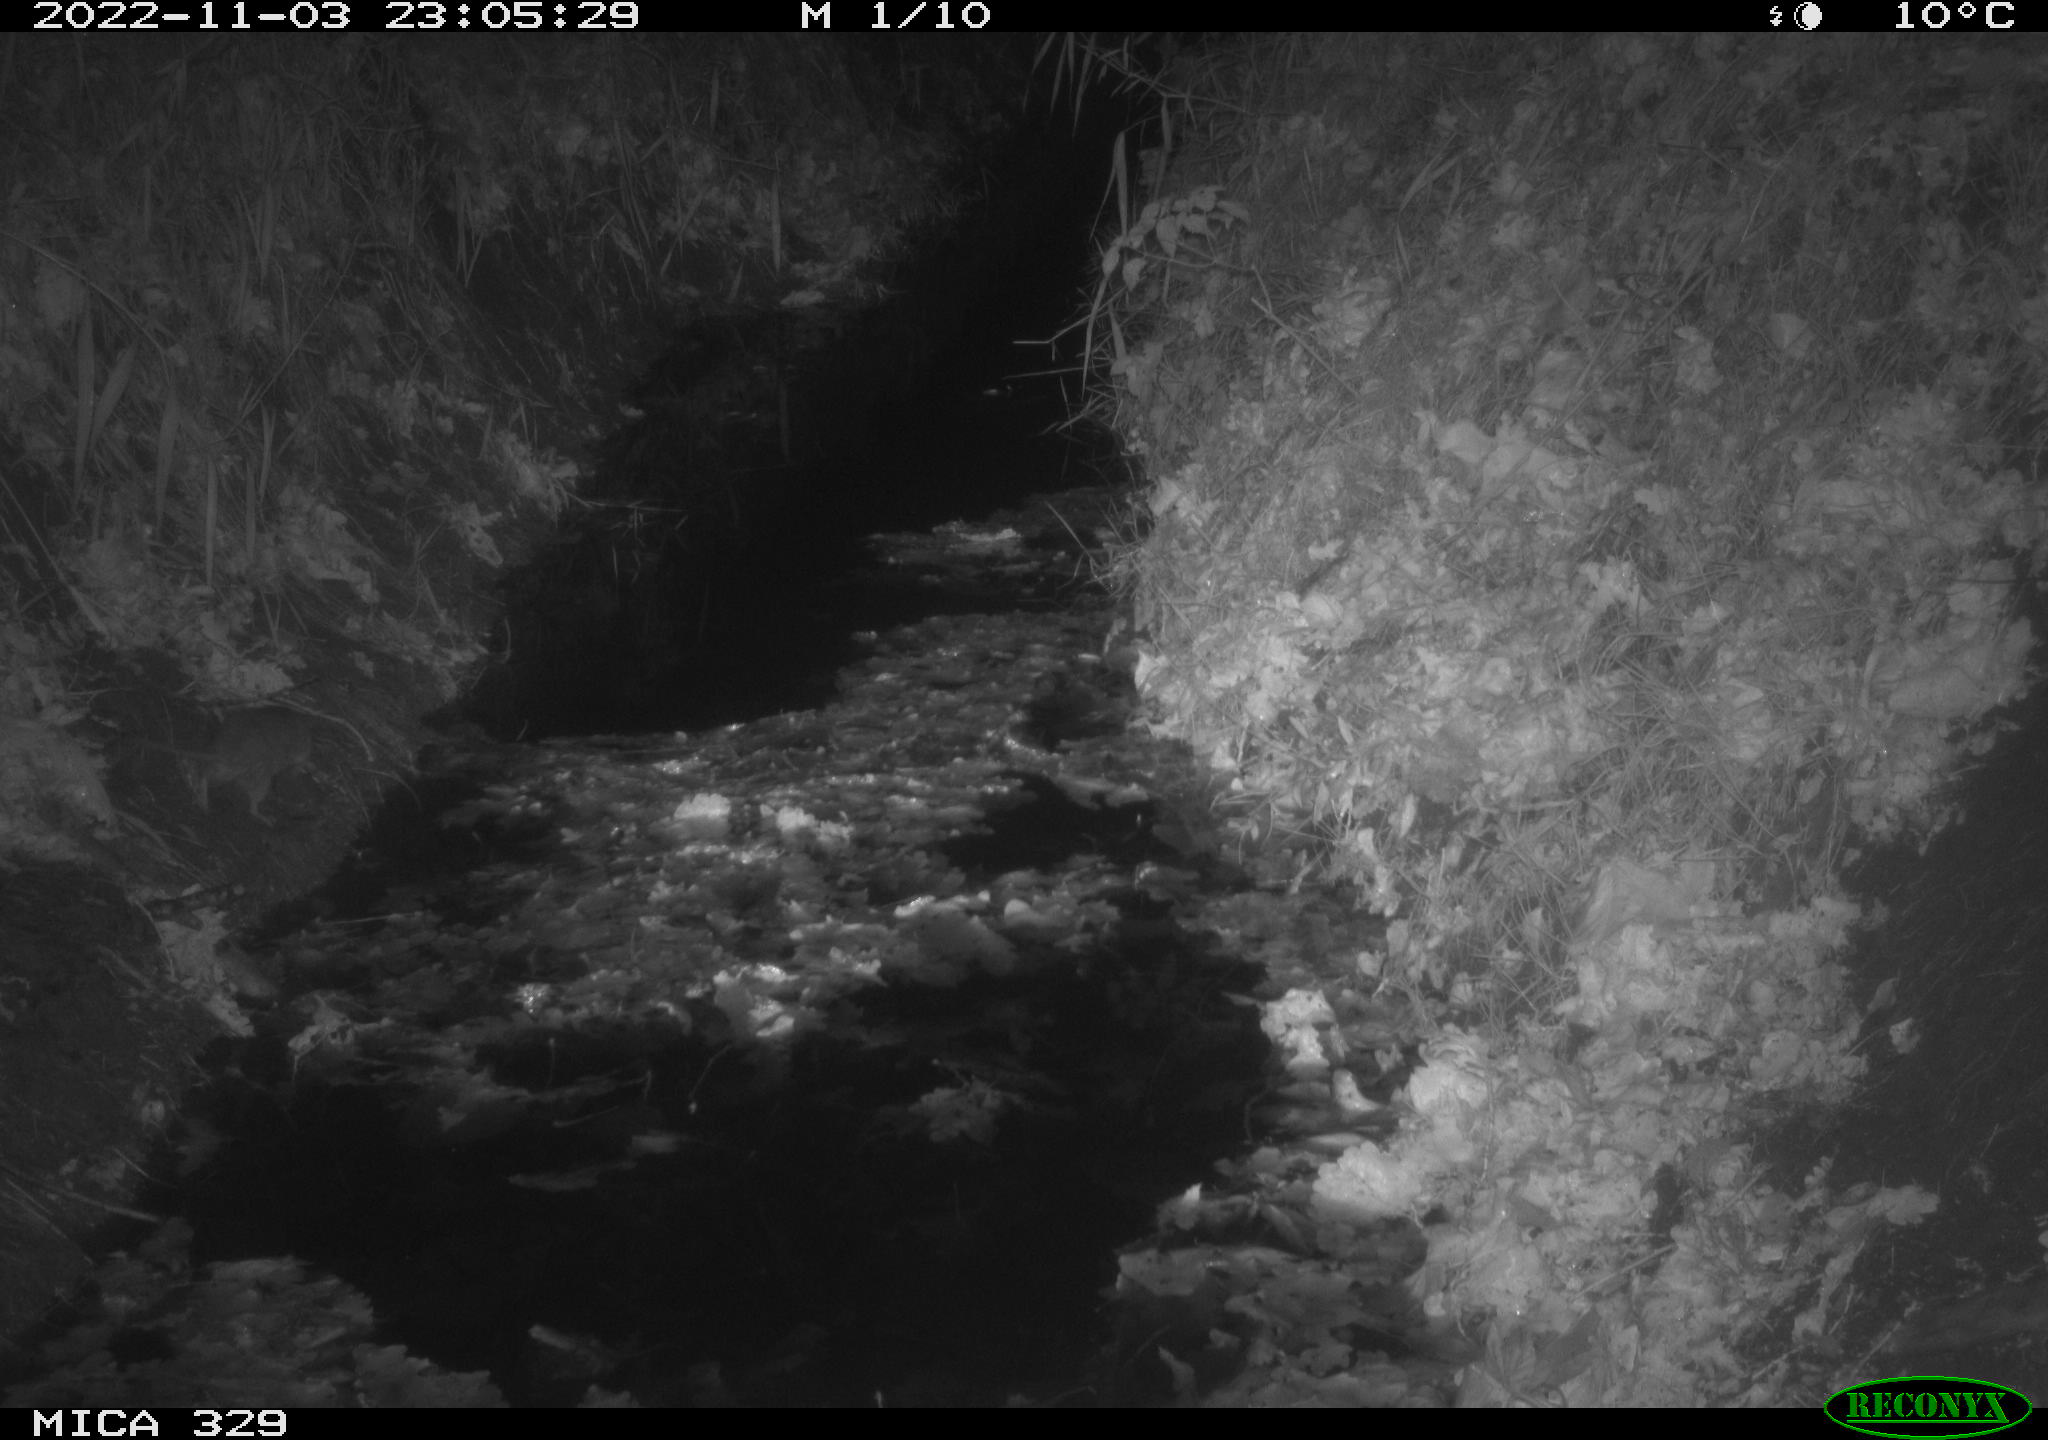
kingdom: Animalia
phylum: Chordata
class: Mammalia
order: Rodentia
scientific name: Rodentia
